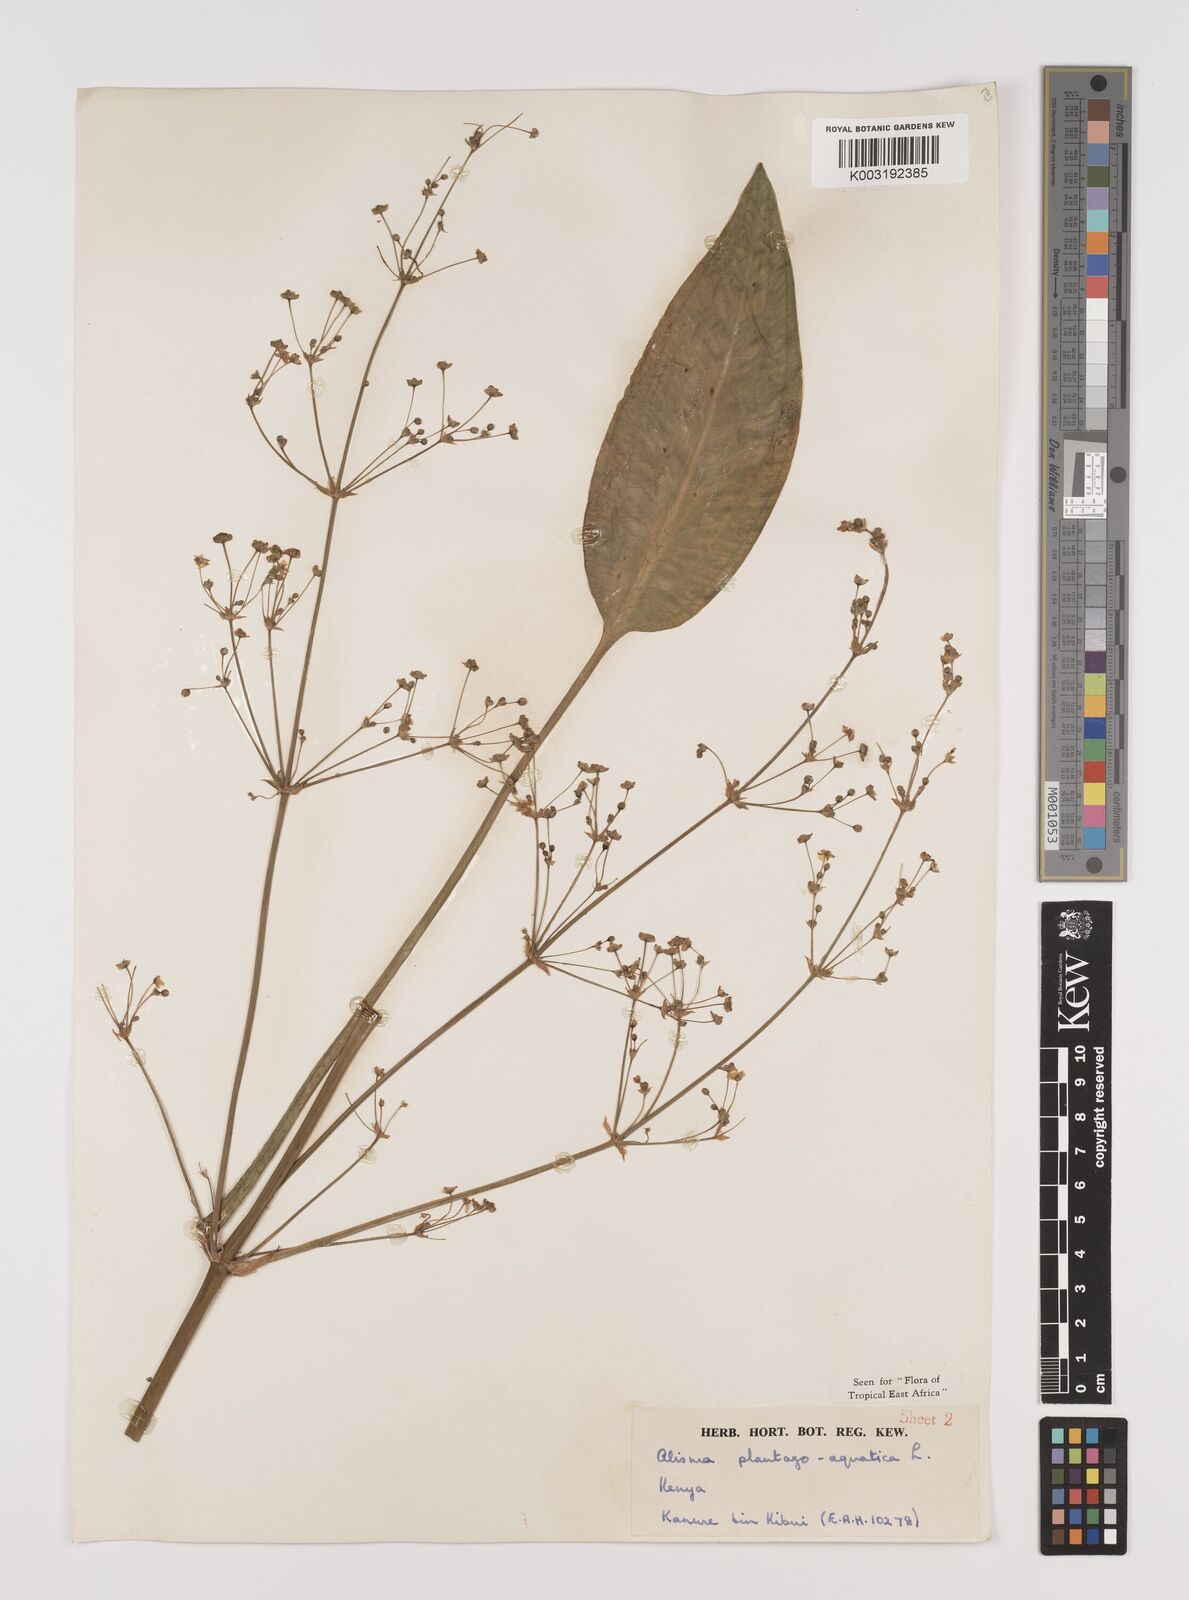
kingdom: Plantae
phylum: Tracheophyta
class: Liliopsida
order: Alismatales
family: Alismataceae
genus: Alisma
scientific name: Alisma plantago-aquatica
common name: Water-plantain
